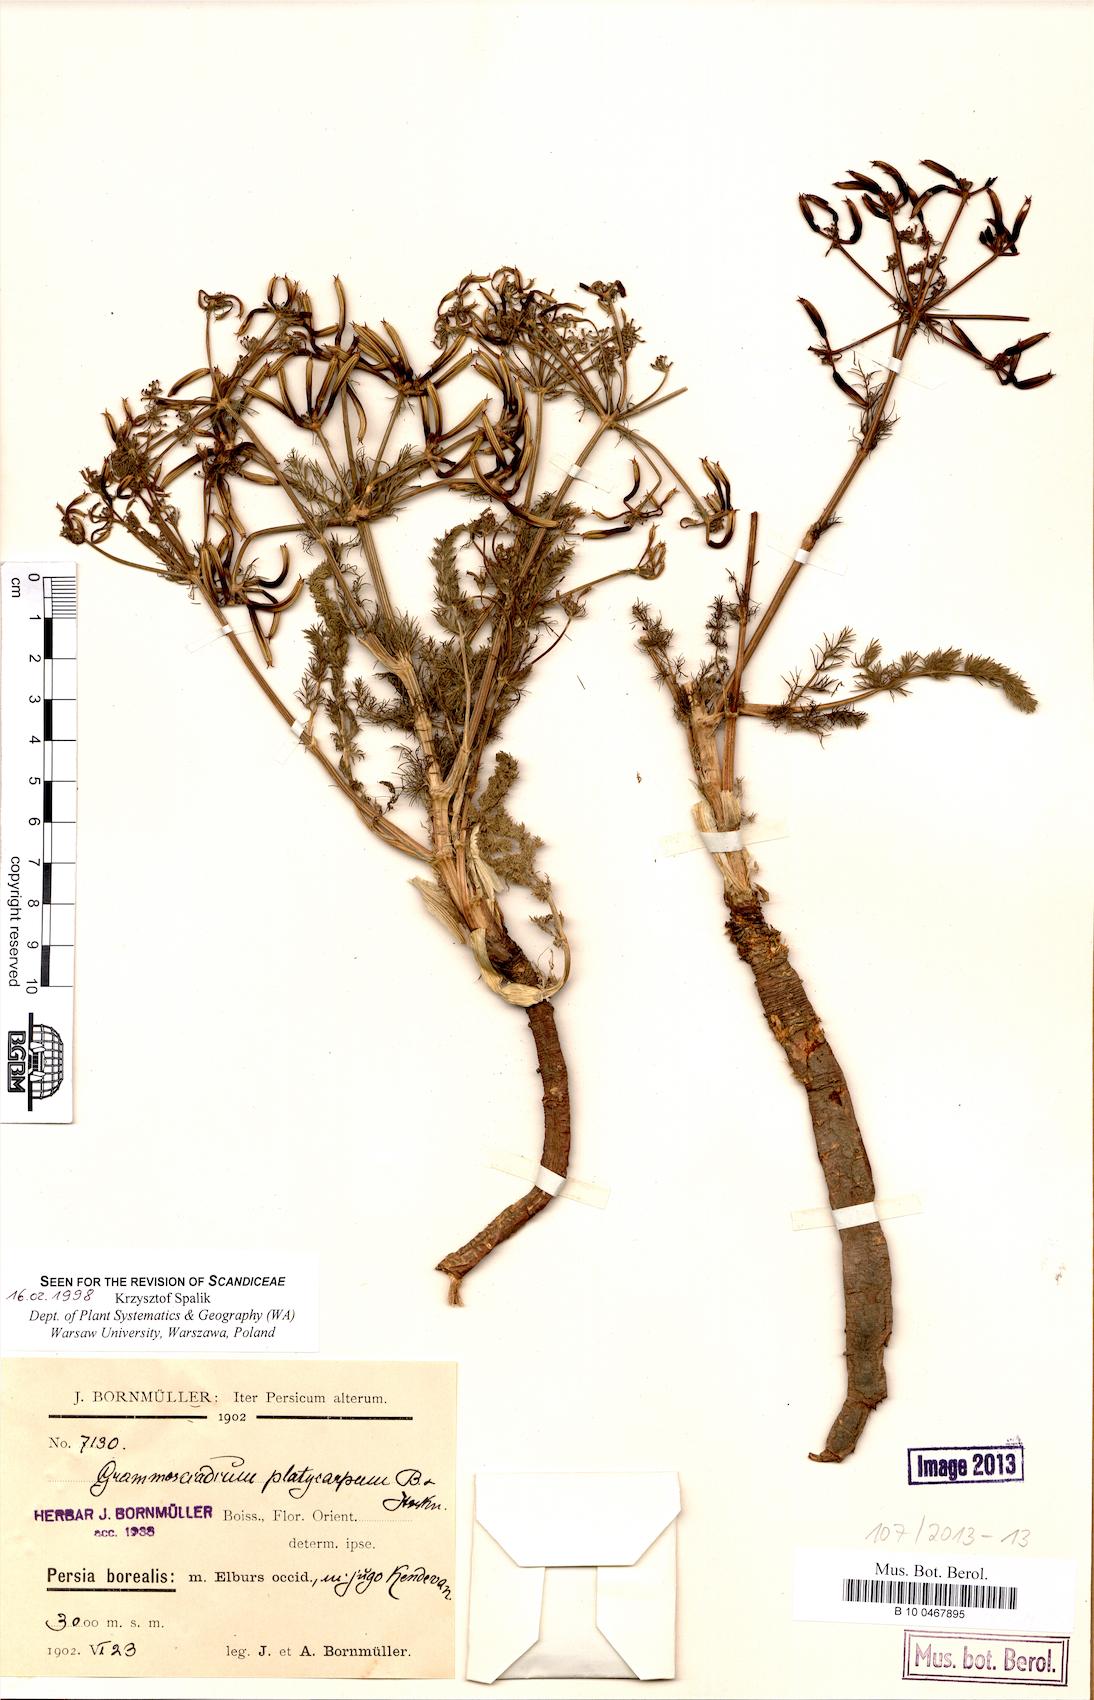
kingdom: Plantae
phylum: Tracheophyta
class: Magnoliopsida
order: Apiales
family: Apiaceae
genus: Caropodium
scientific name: Caropodium platycarpum
